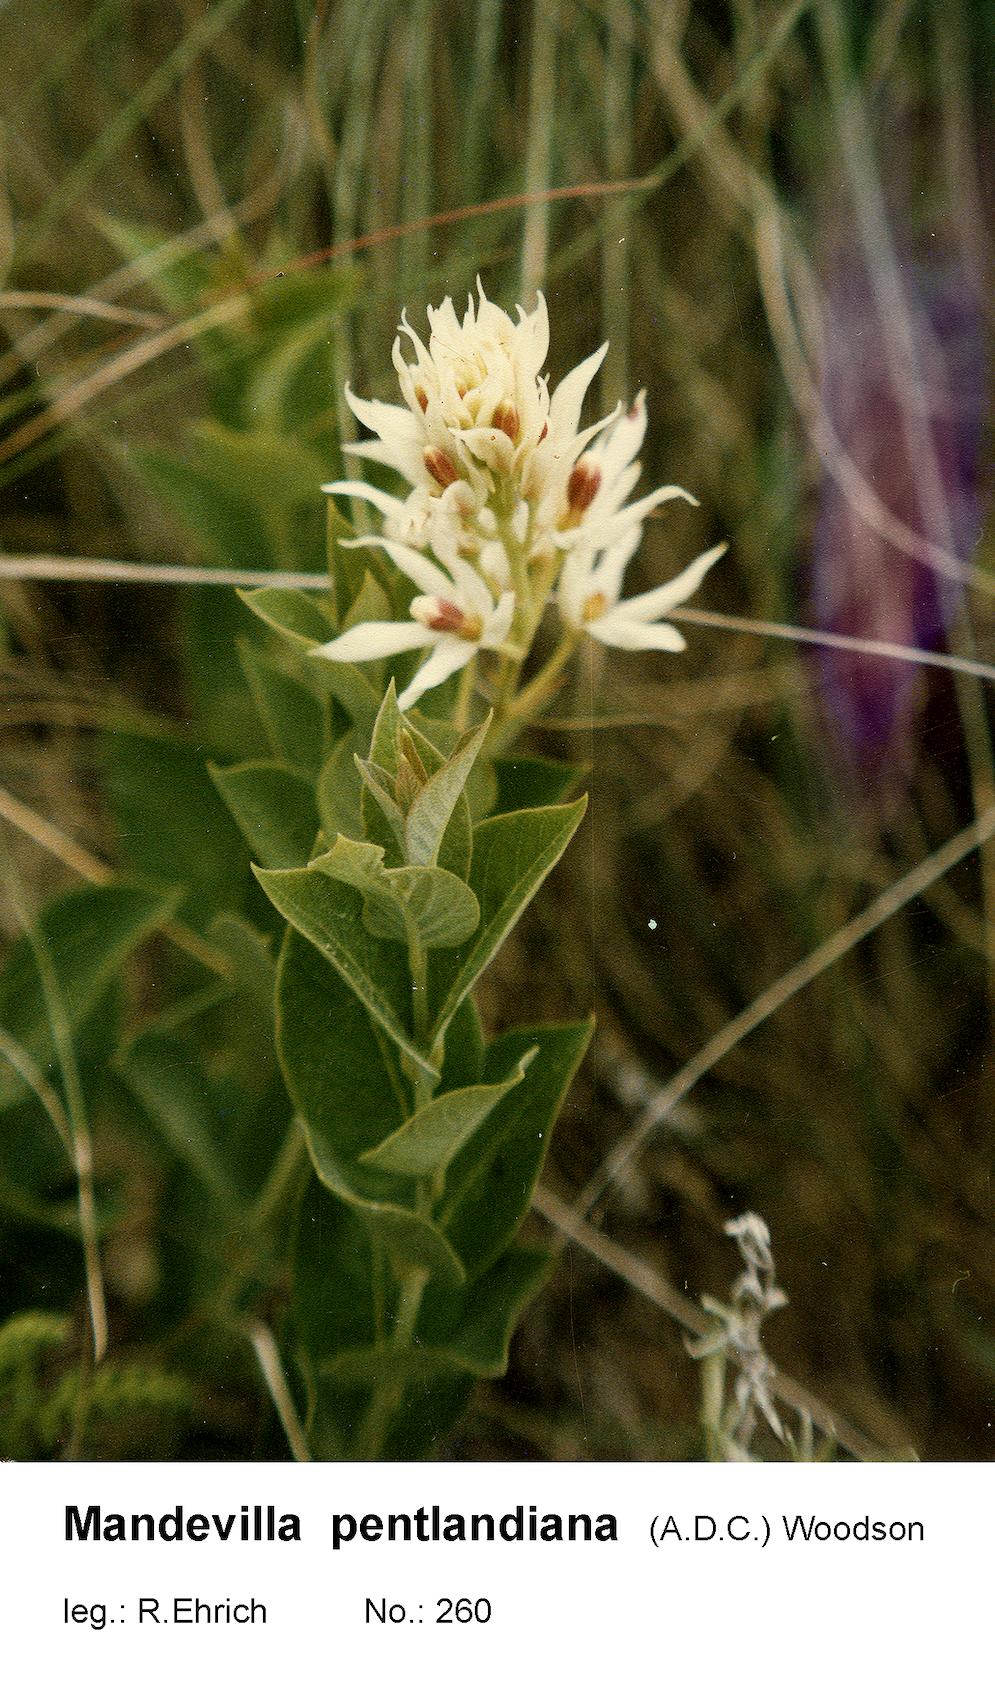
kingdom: Plantae
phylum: Tracheophyta
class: Magnoliopsida
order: Gentianales
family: Apocynaceae
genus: Mandevilla
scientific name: Mandevilla pentlandiana
